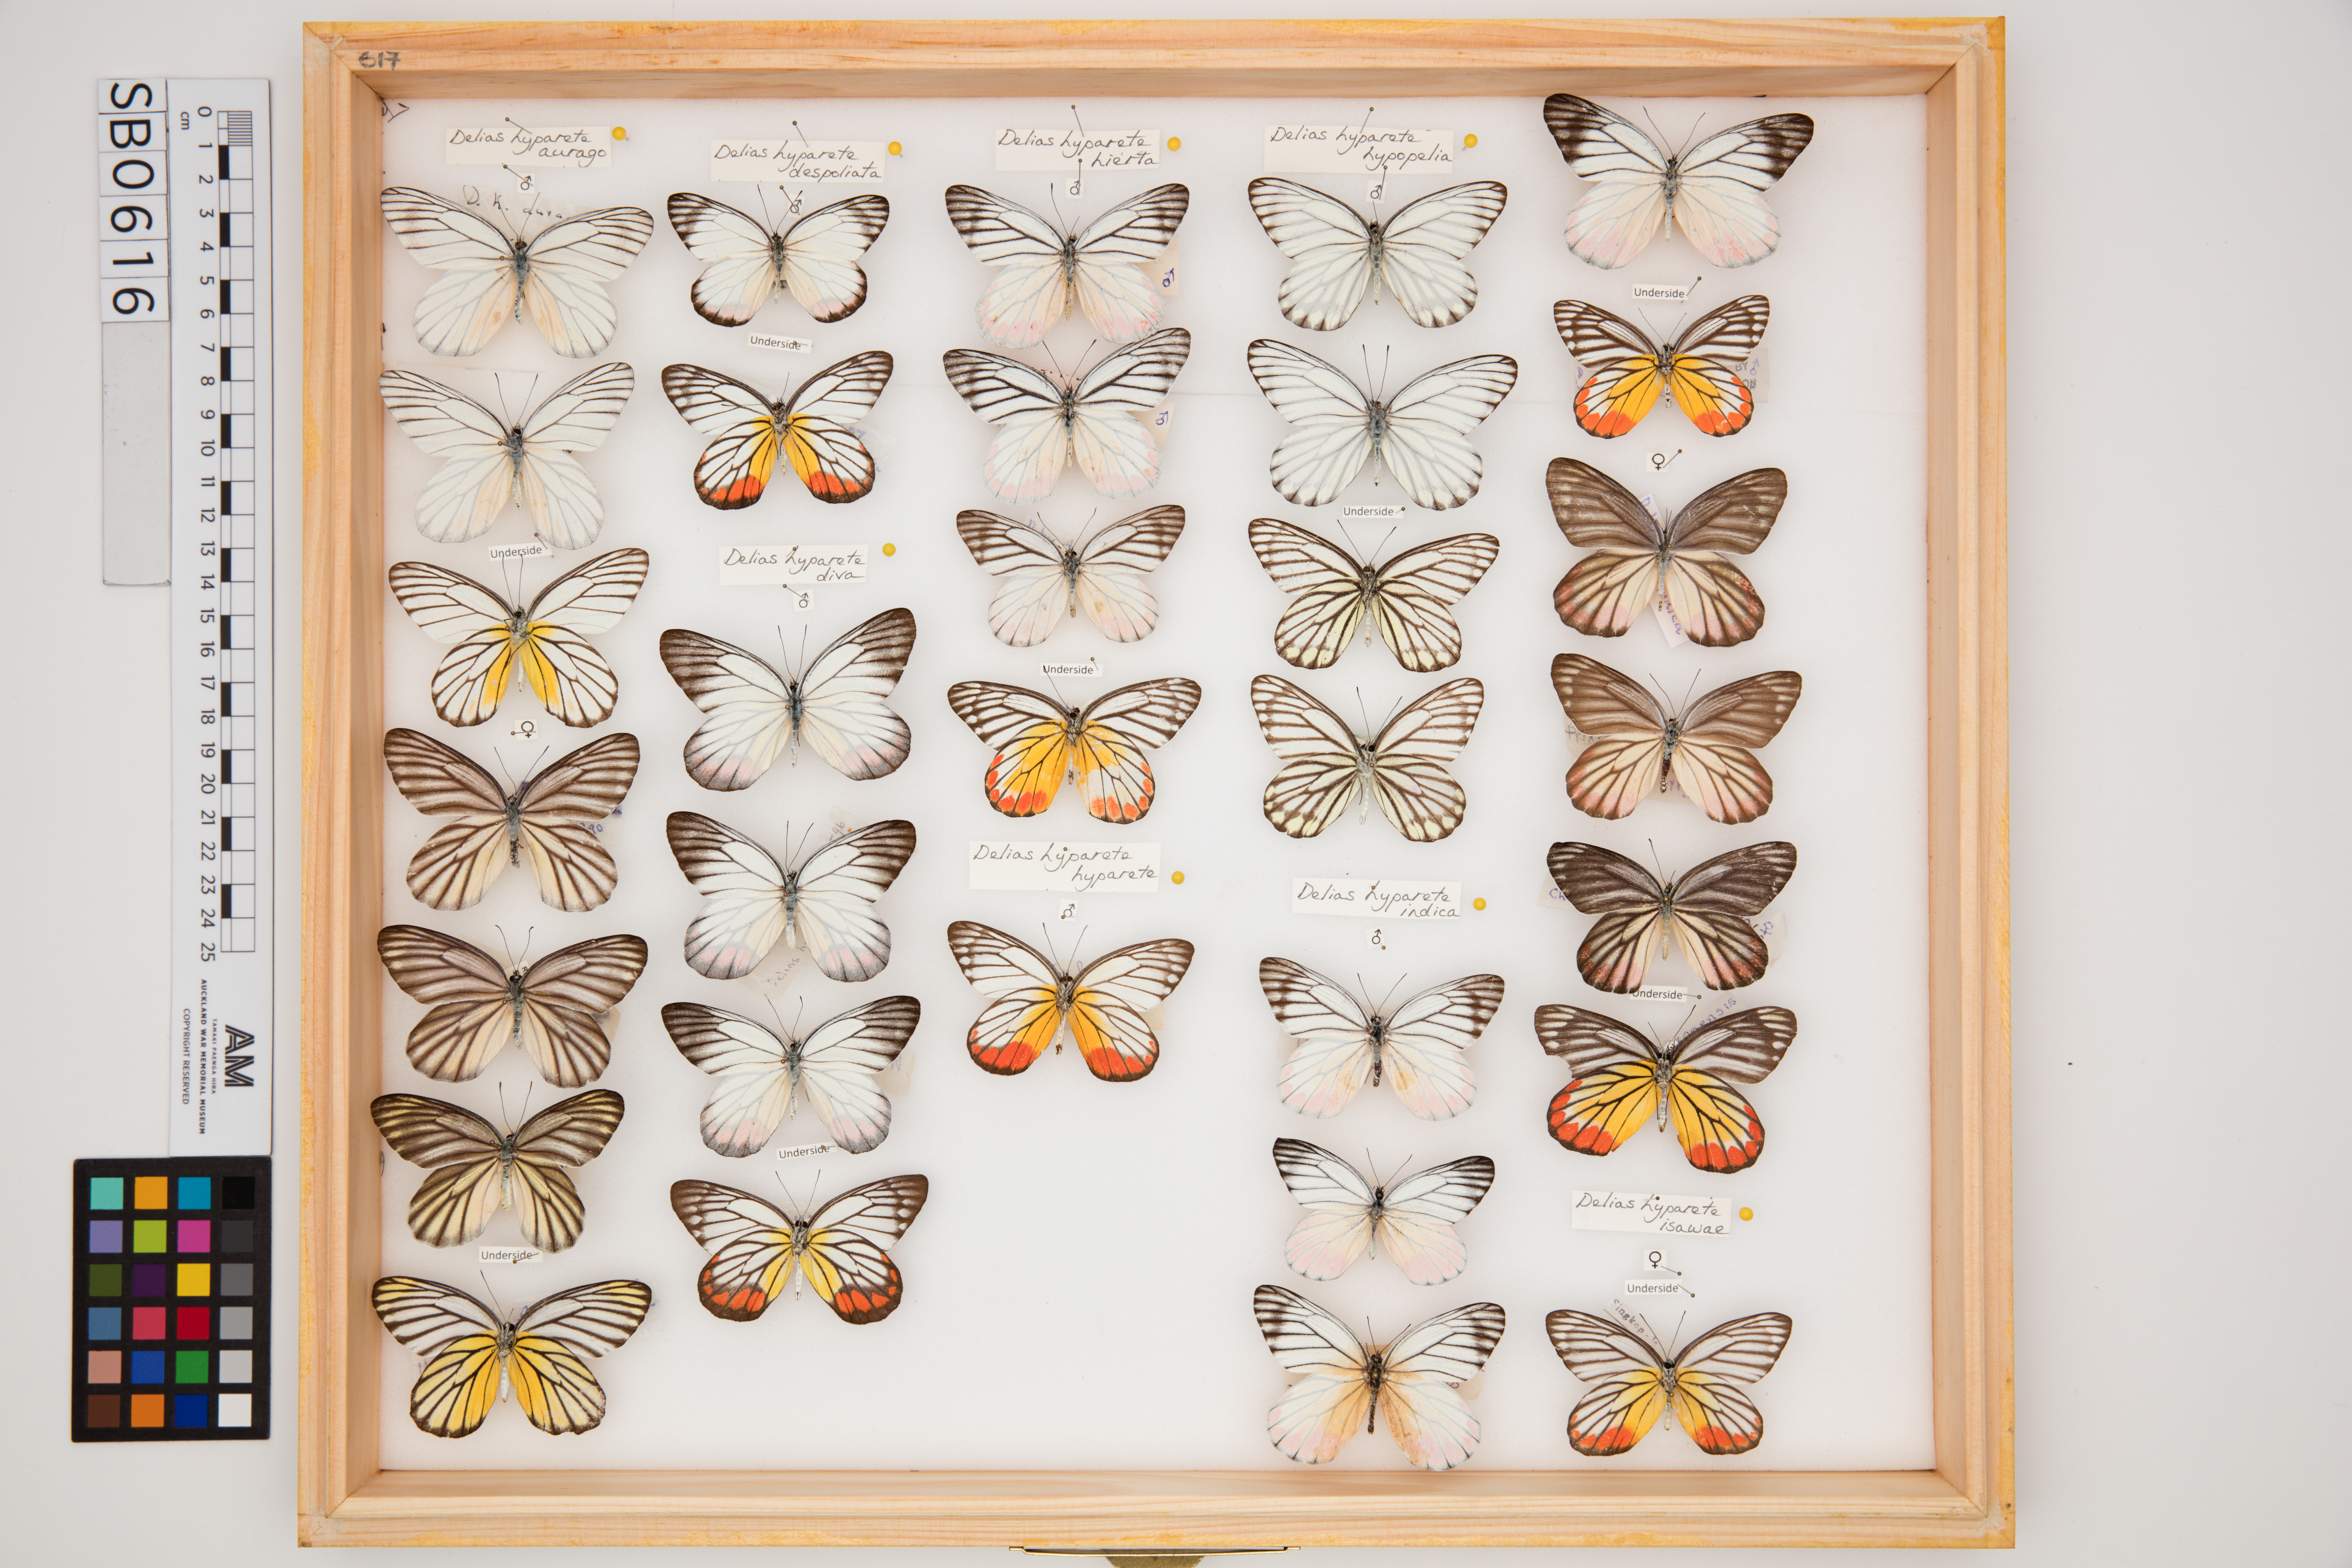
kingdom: Animalia
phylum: Arthropoda
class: Insecta
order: Lepidoptera
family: Pieridae
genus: Delias
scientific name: Delias hyparete
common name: Painted jezebel
